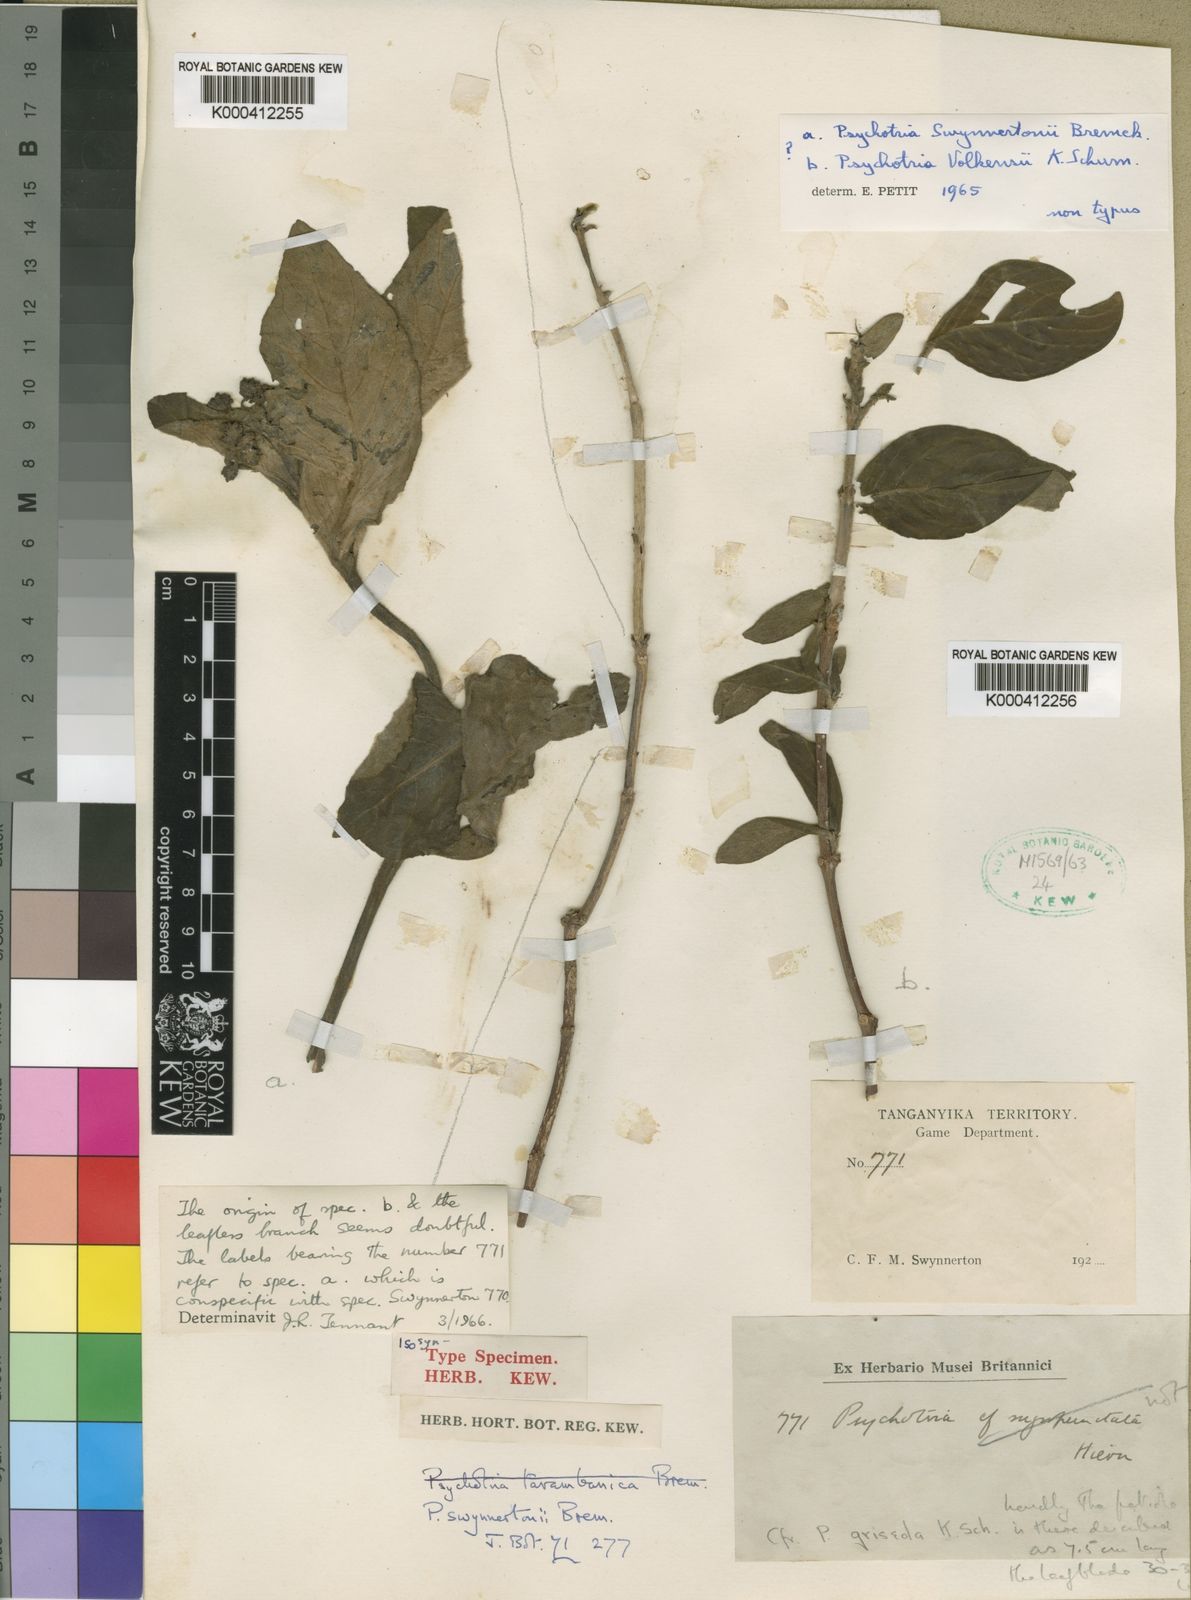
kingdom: Plantae
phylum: Tracheophyta
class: Magnoliopsida
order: Gentianales
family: Rubiaceae
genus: Psychotria
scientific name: Psychotria punctata
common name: Dotted wild coffee
